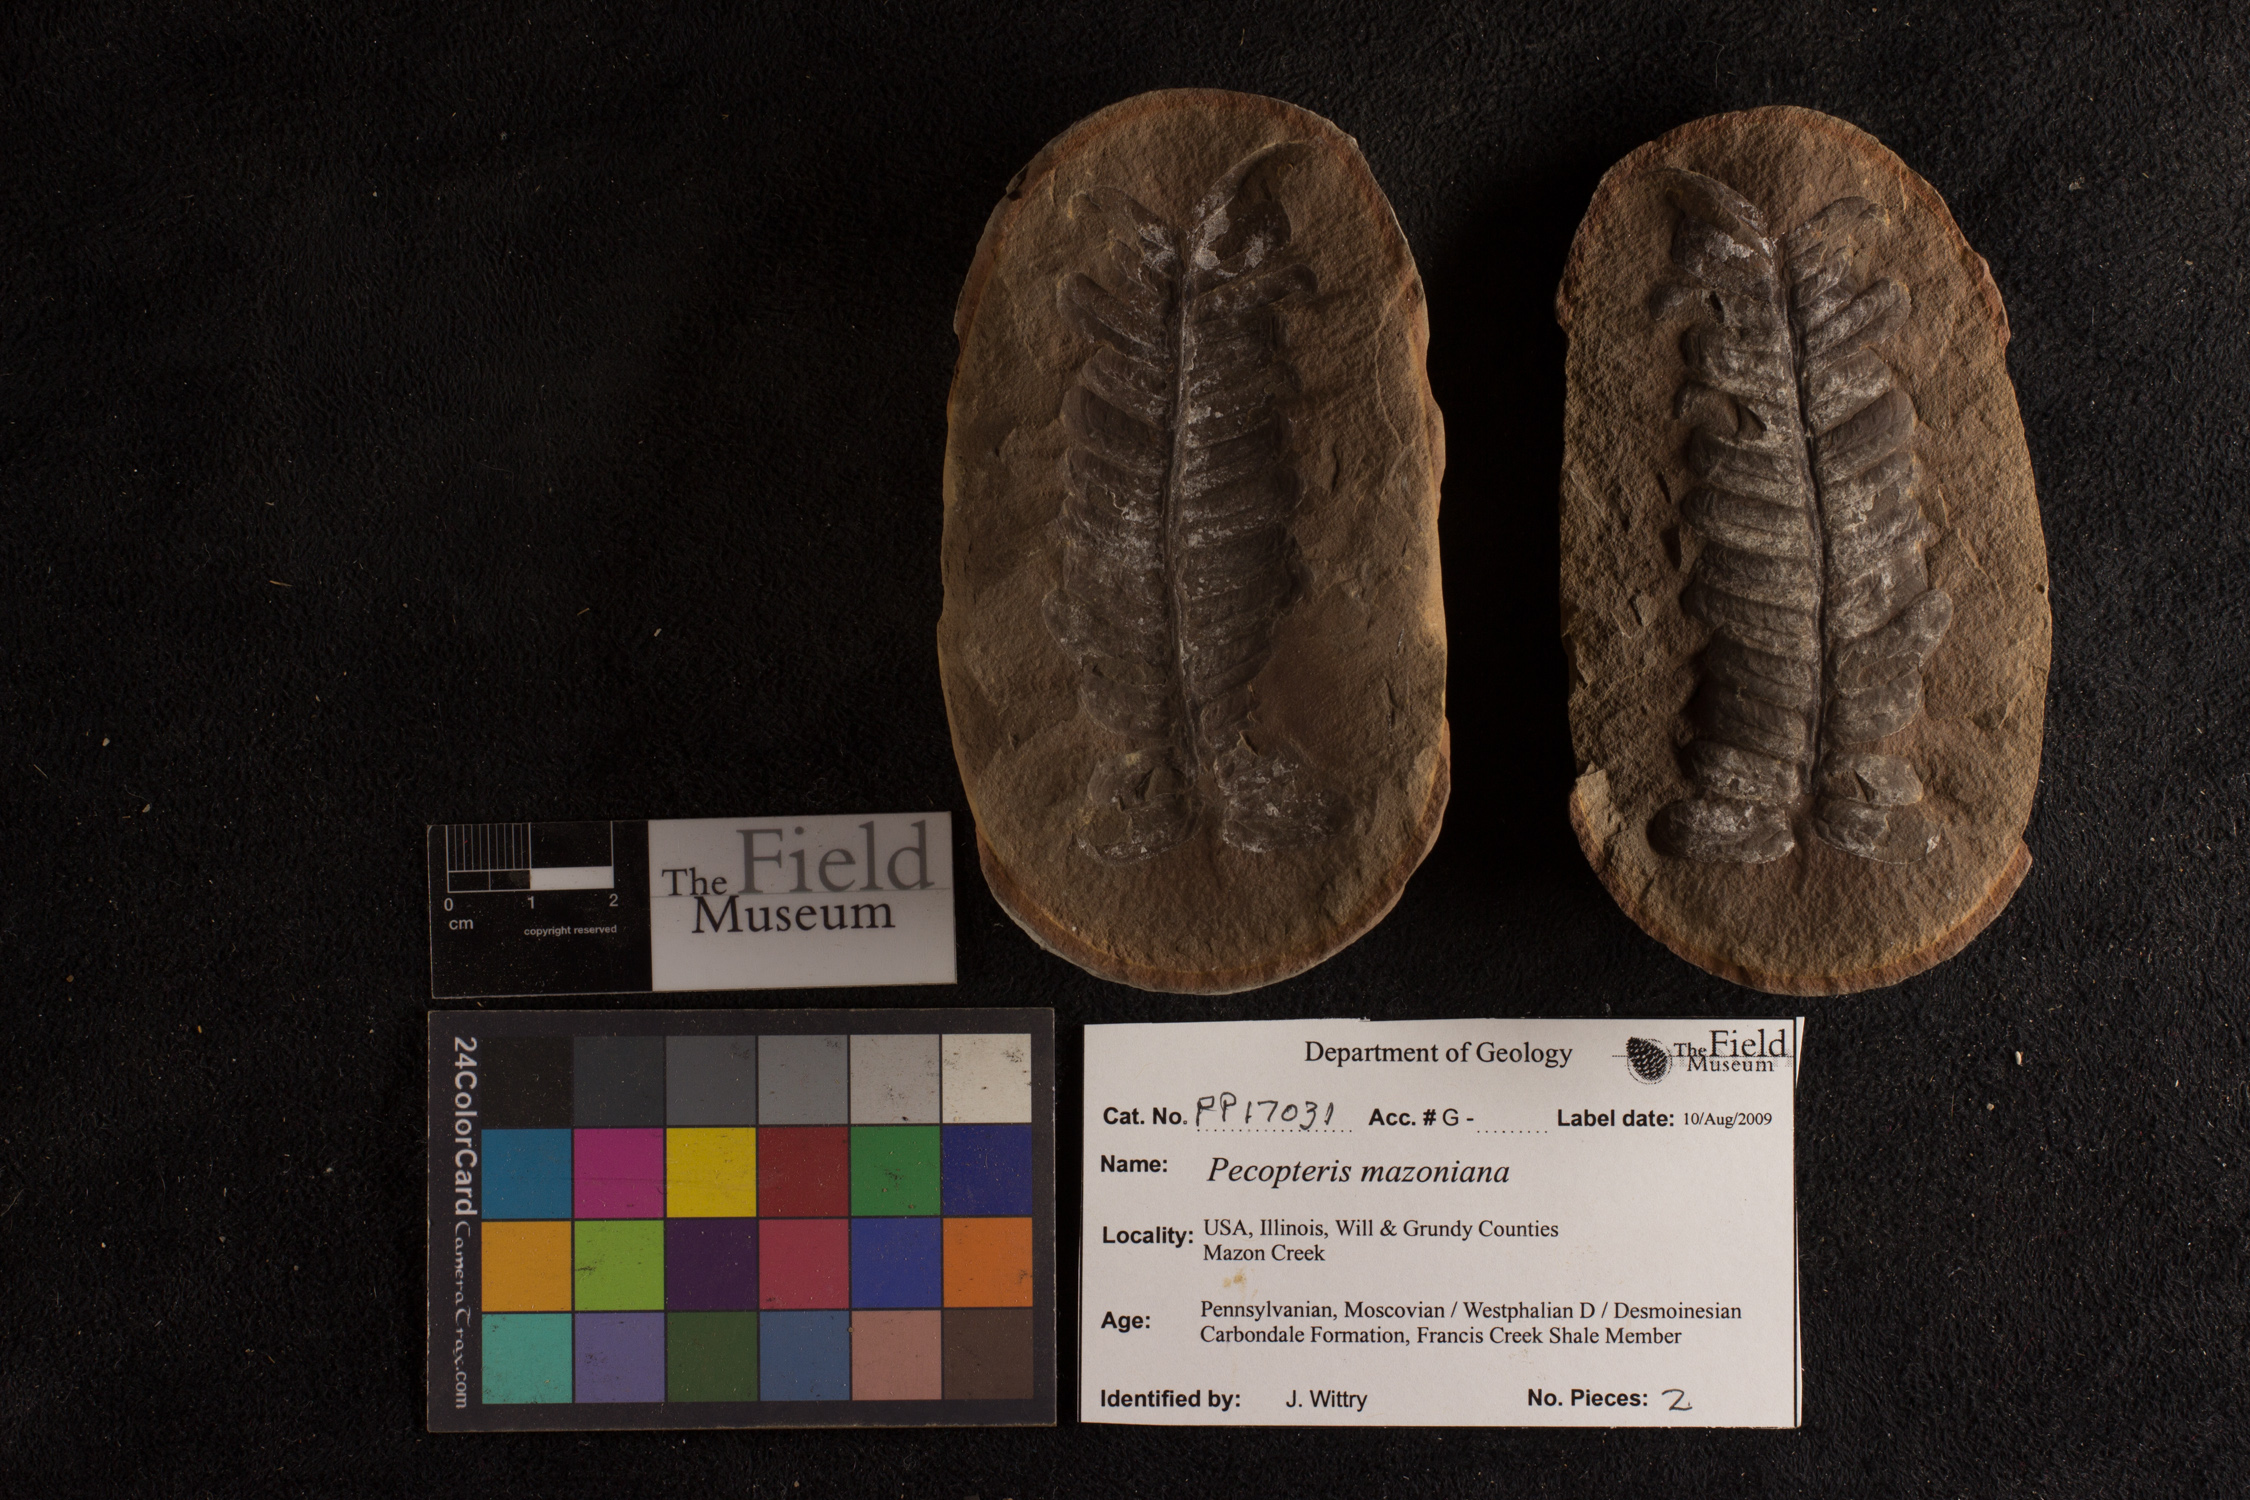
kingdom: Plantae
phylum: Tracheophyta
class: Polypodiopsida
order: Marattiales
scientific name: Marattiales
